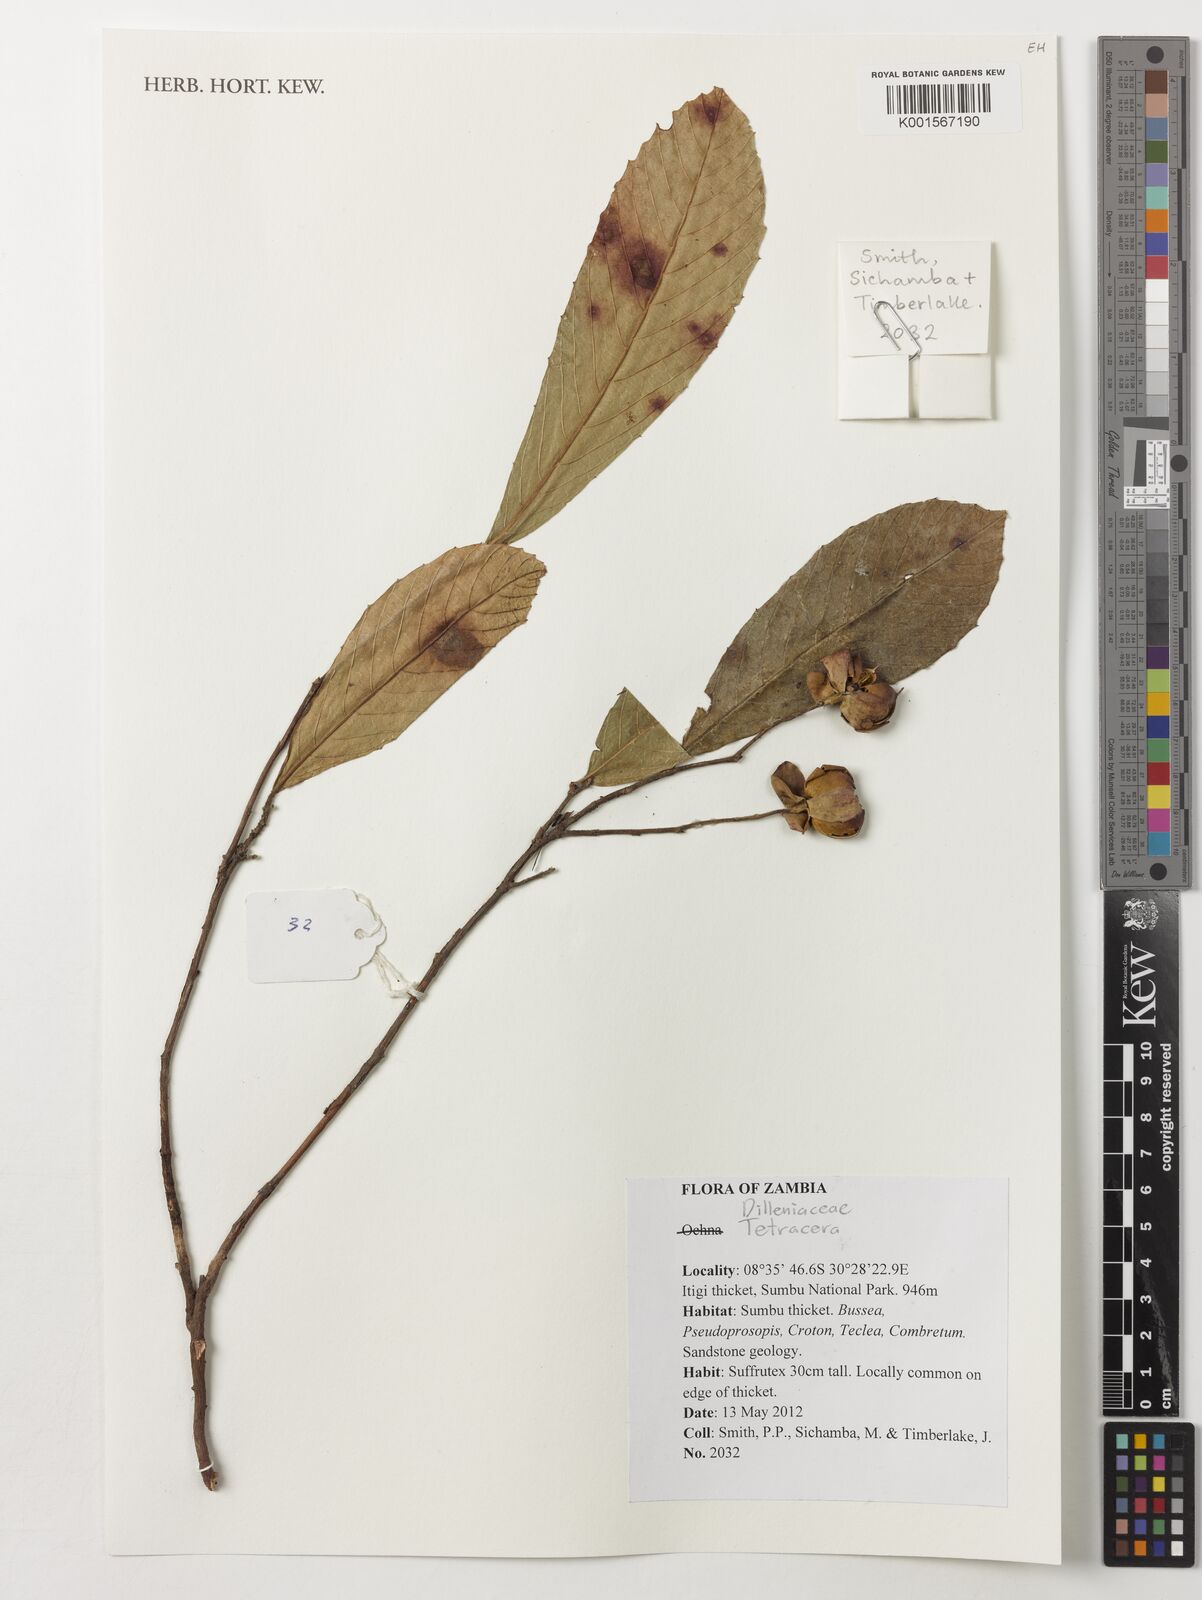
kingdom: Plantae
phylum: Tracheophyta
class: Magnoliopsida
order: Dilleniales
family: Dilleniaceae
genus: Tetracera
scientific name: Tetracera
